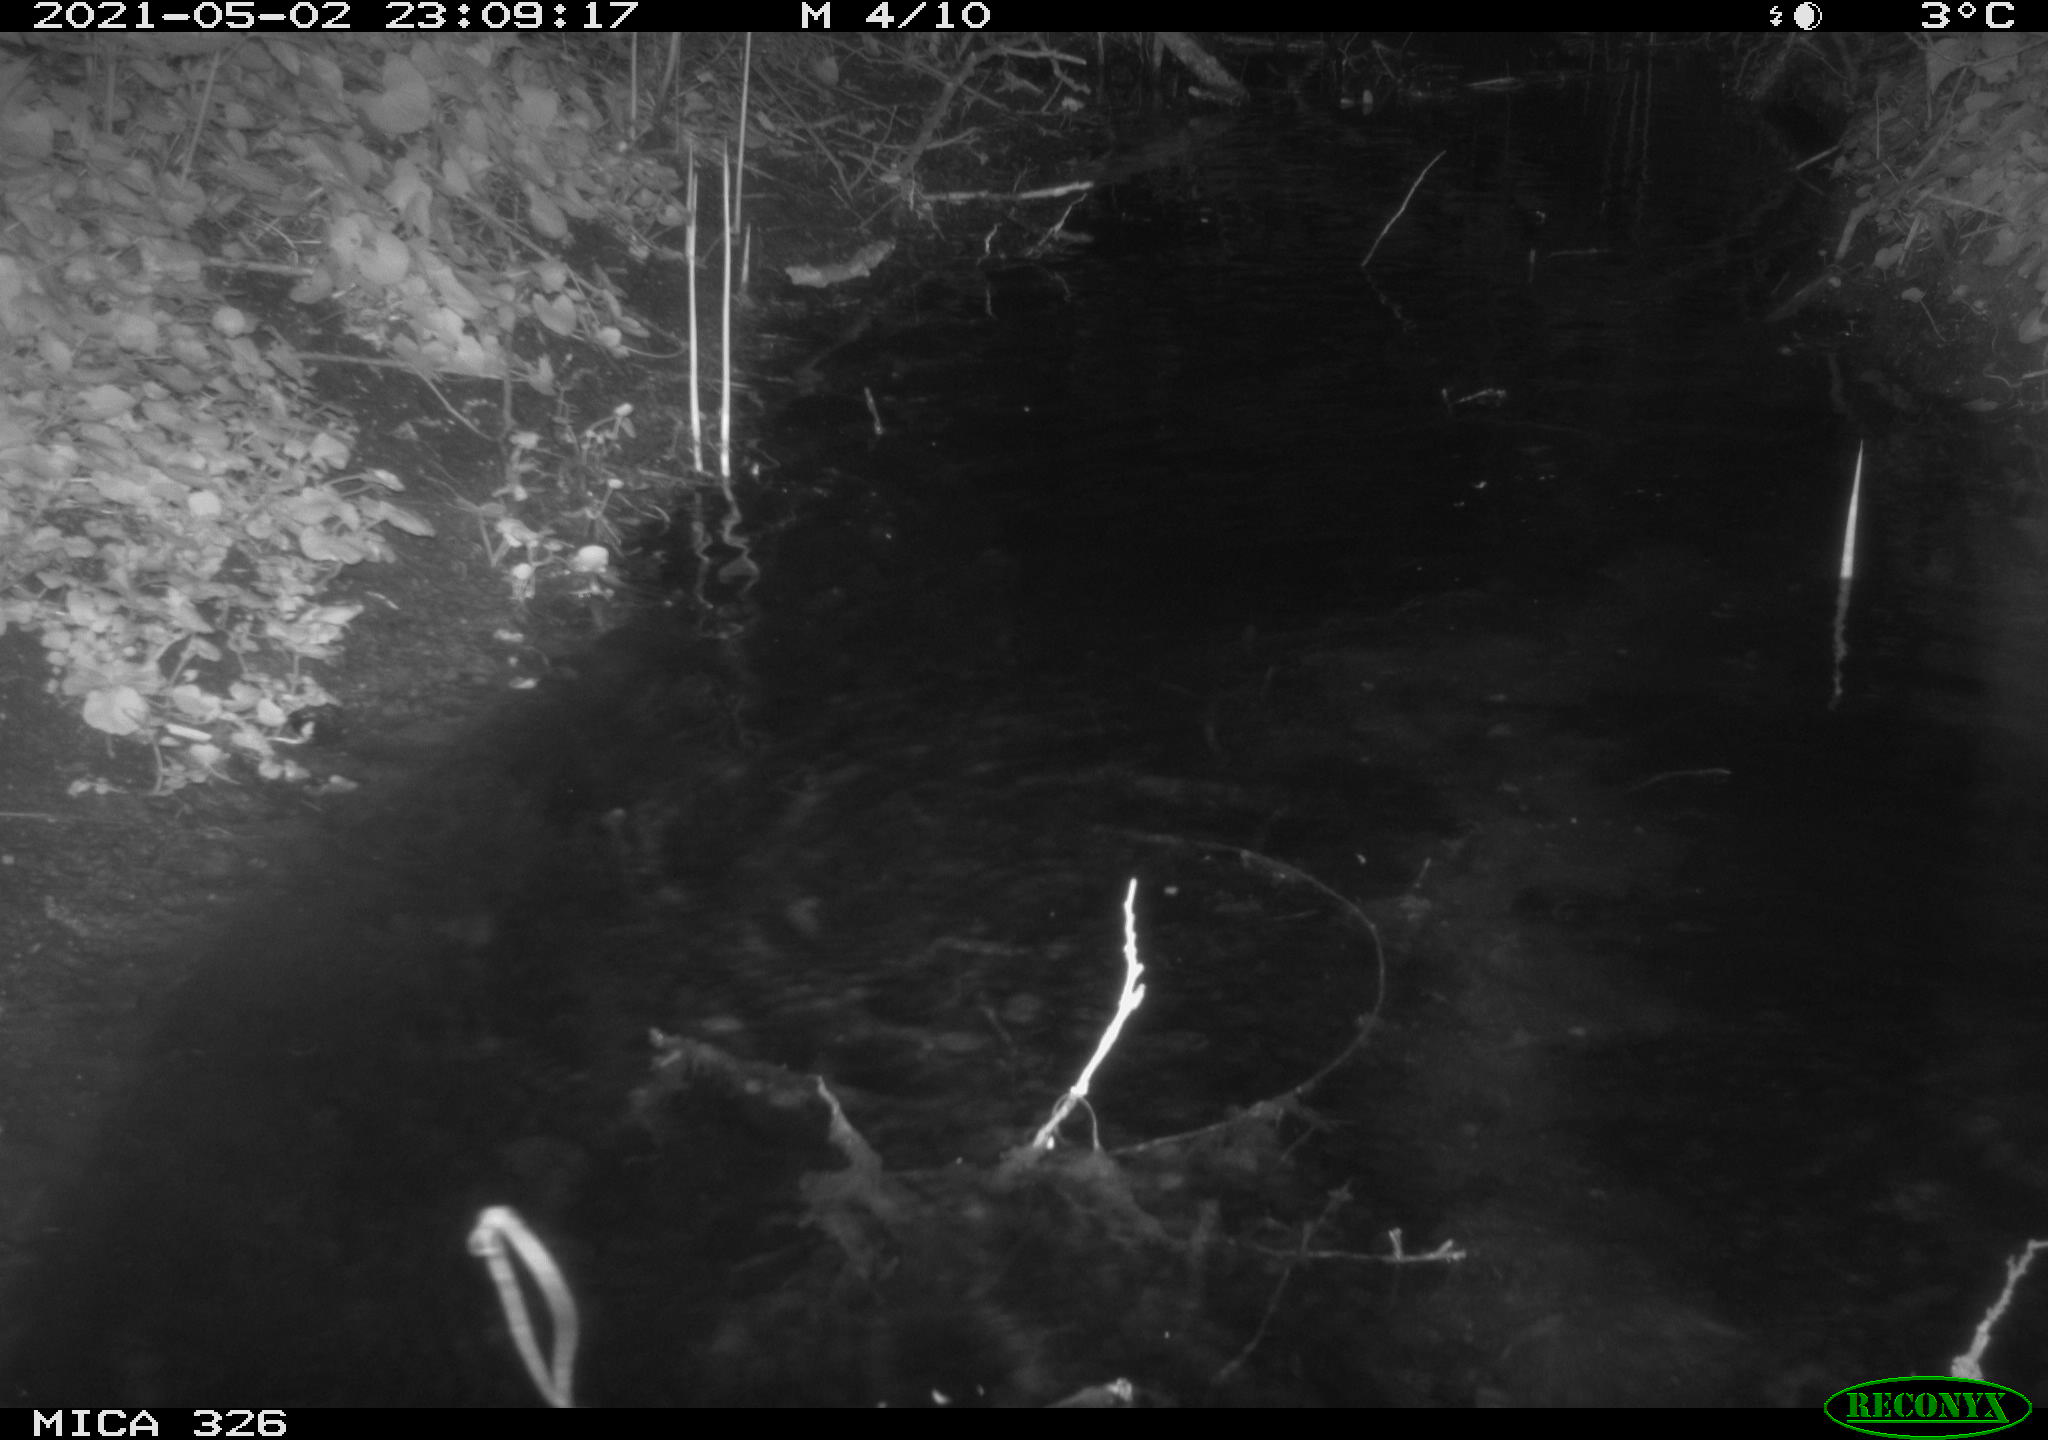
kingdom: Animalia
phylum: Chordata
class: Mammalia
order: Rodentia
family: Cricetidae
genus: Ondatra
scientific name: Ondatra zibethicus
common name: Muskrat
